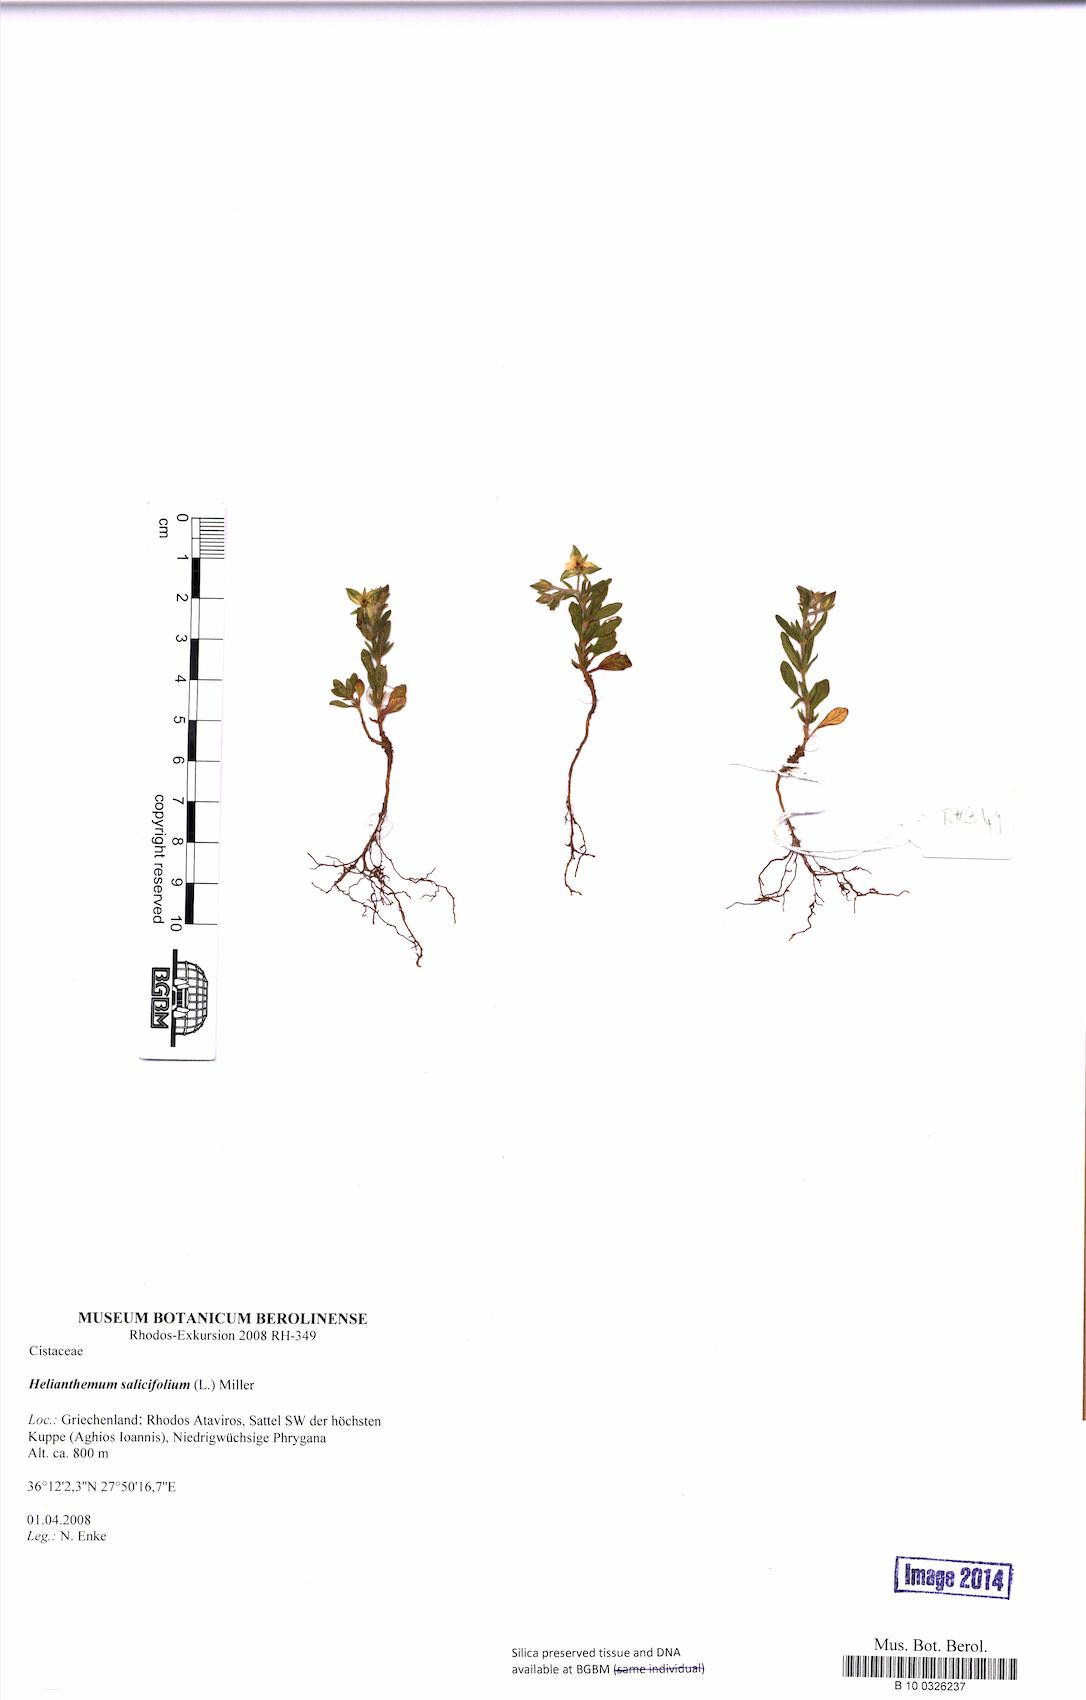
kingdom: Plantae
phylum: Tracheophyta
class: Magnoliopsida
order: Malvales
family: Cistaceae
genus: Helianthemum
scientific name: Helianthemum salicifolium
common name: Willowleaf frostweed
